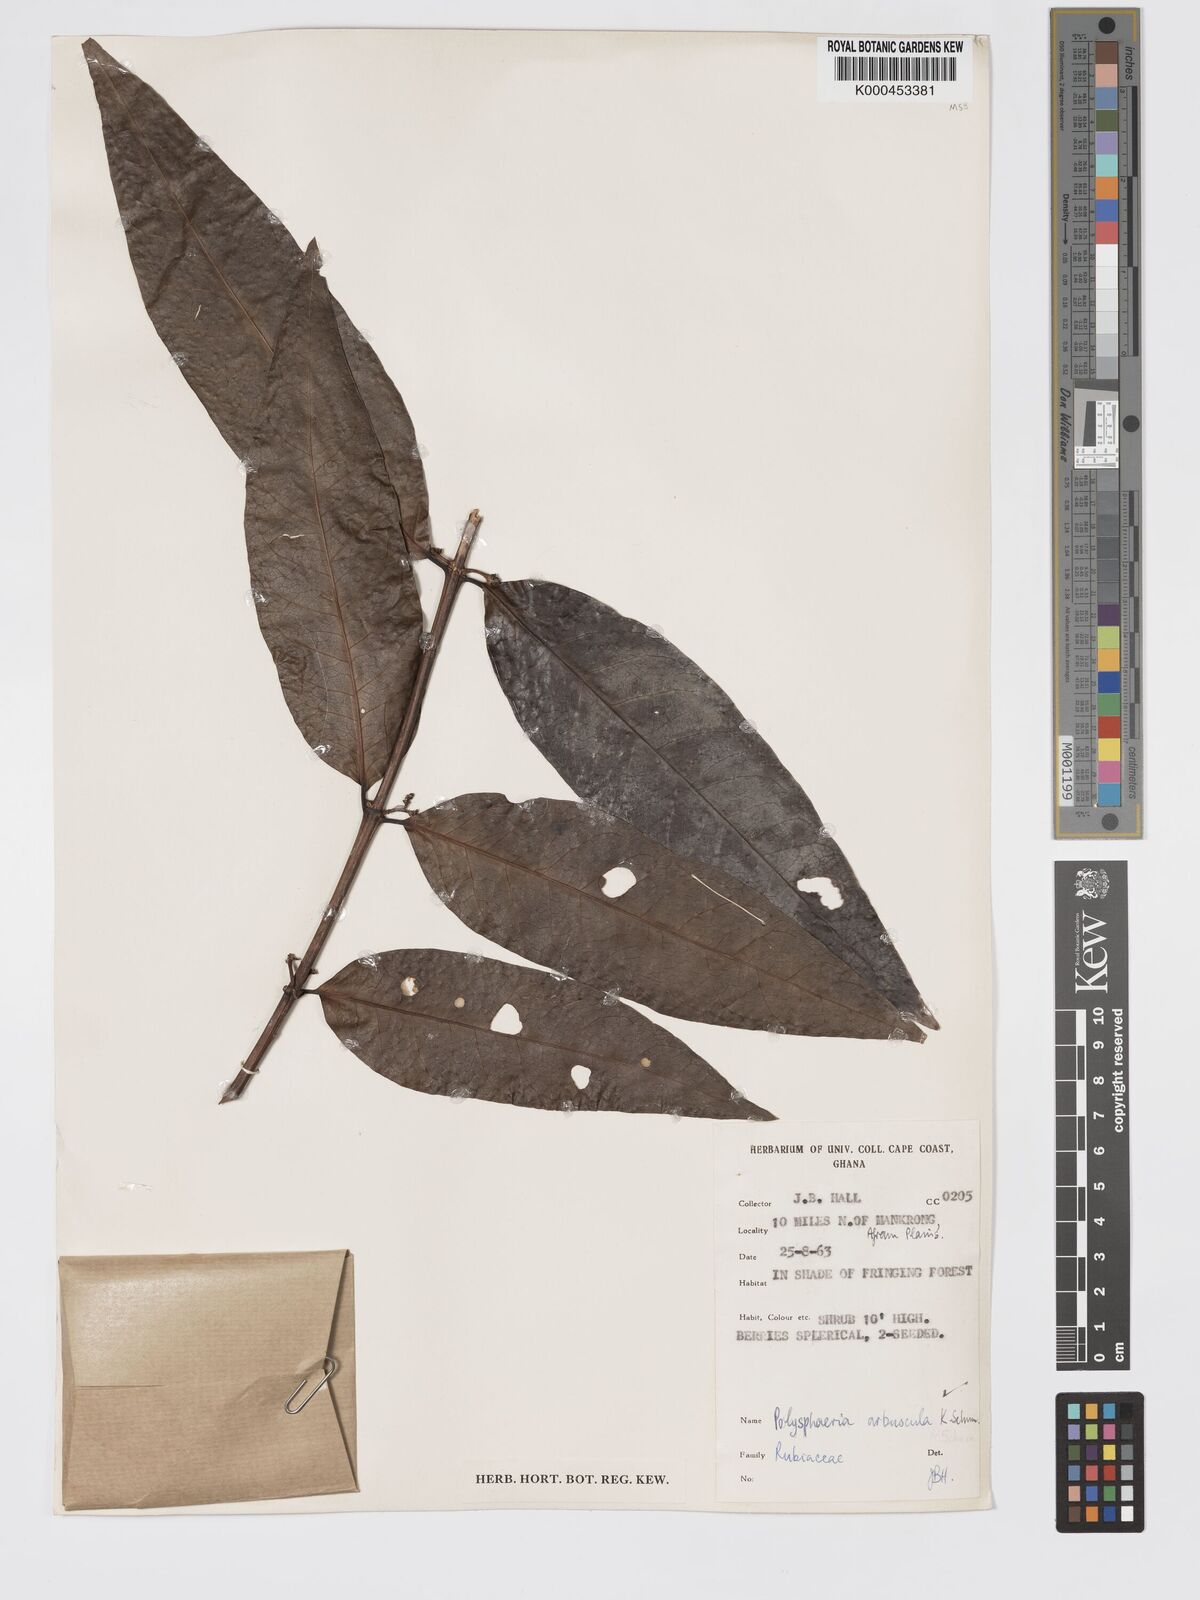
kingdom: Plantae
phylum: Tracheophyta
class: Magnoliopsida
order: Gentianales
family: Rubiaceae
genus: Polysphaeria
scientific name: Polysphaeria arbuscula
